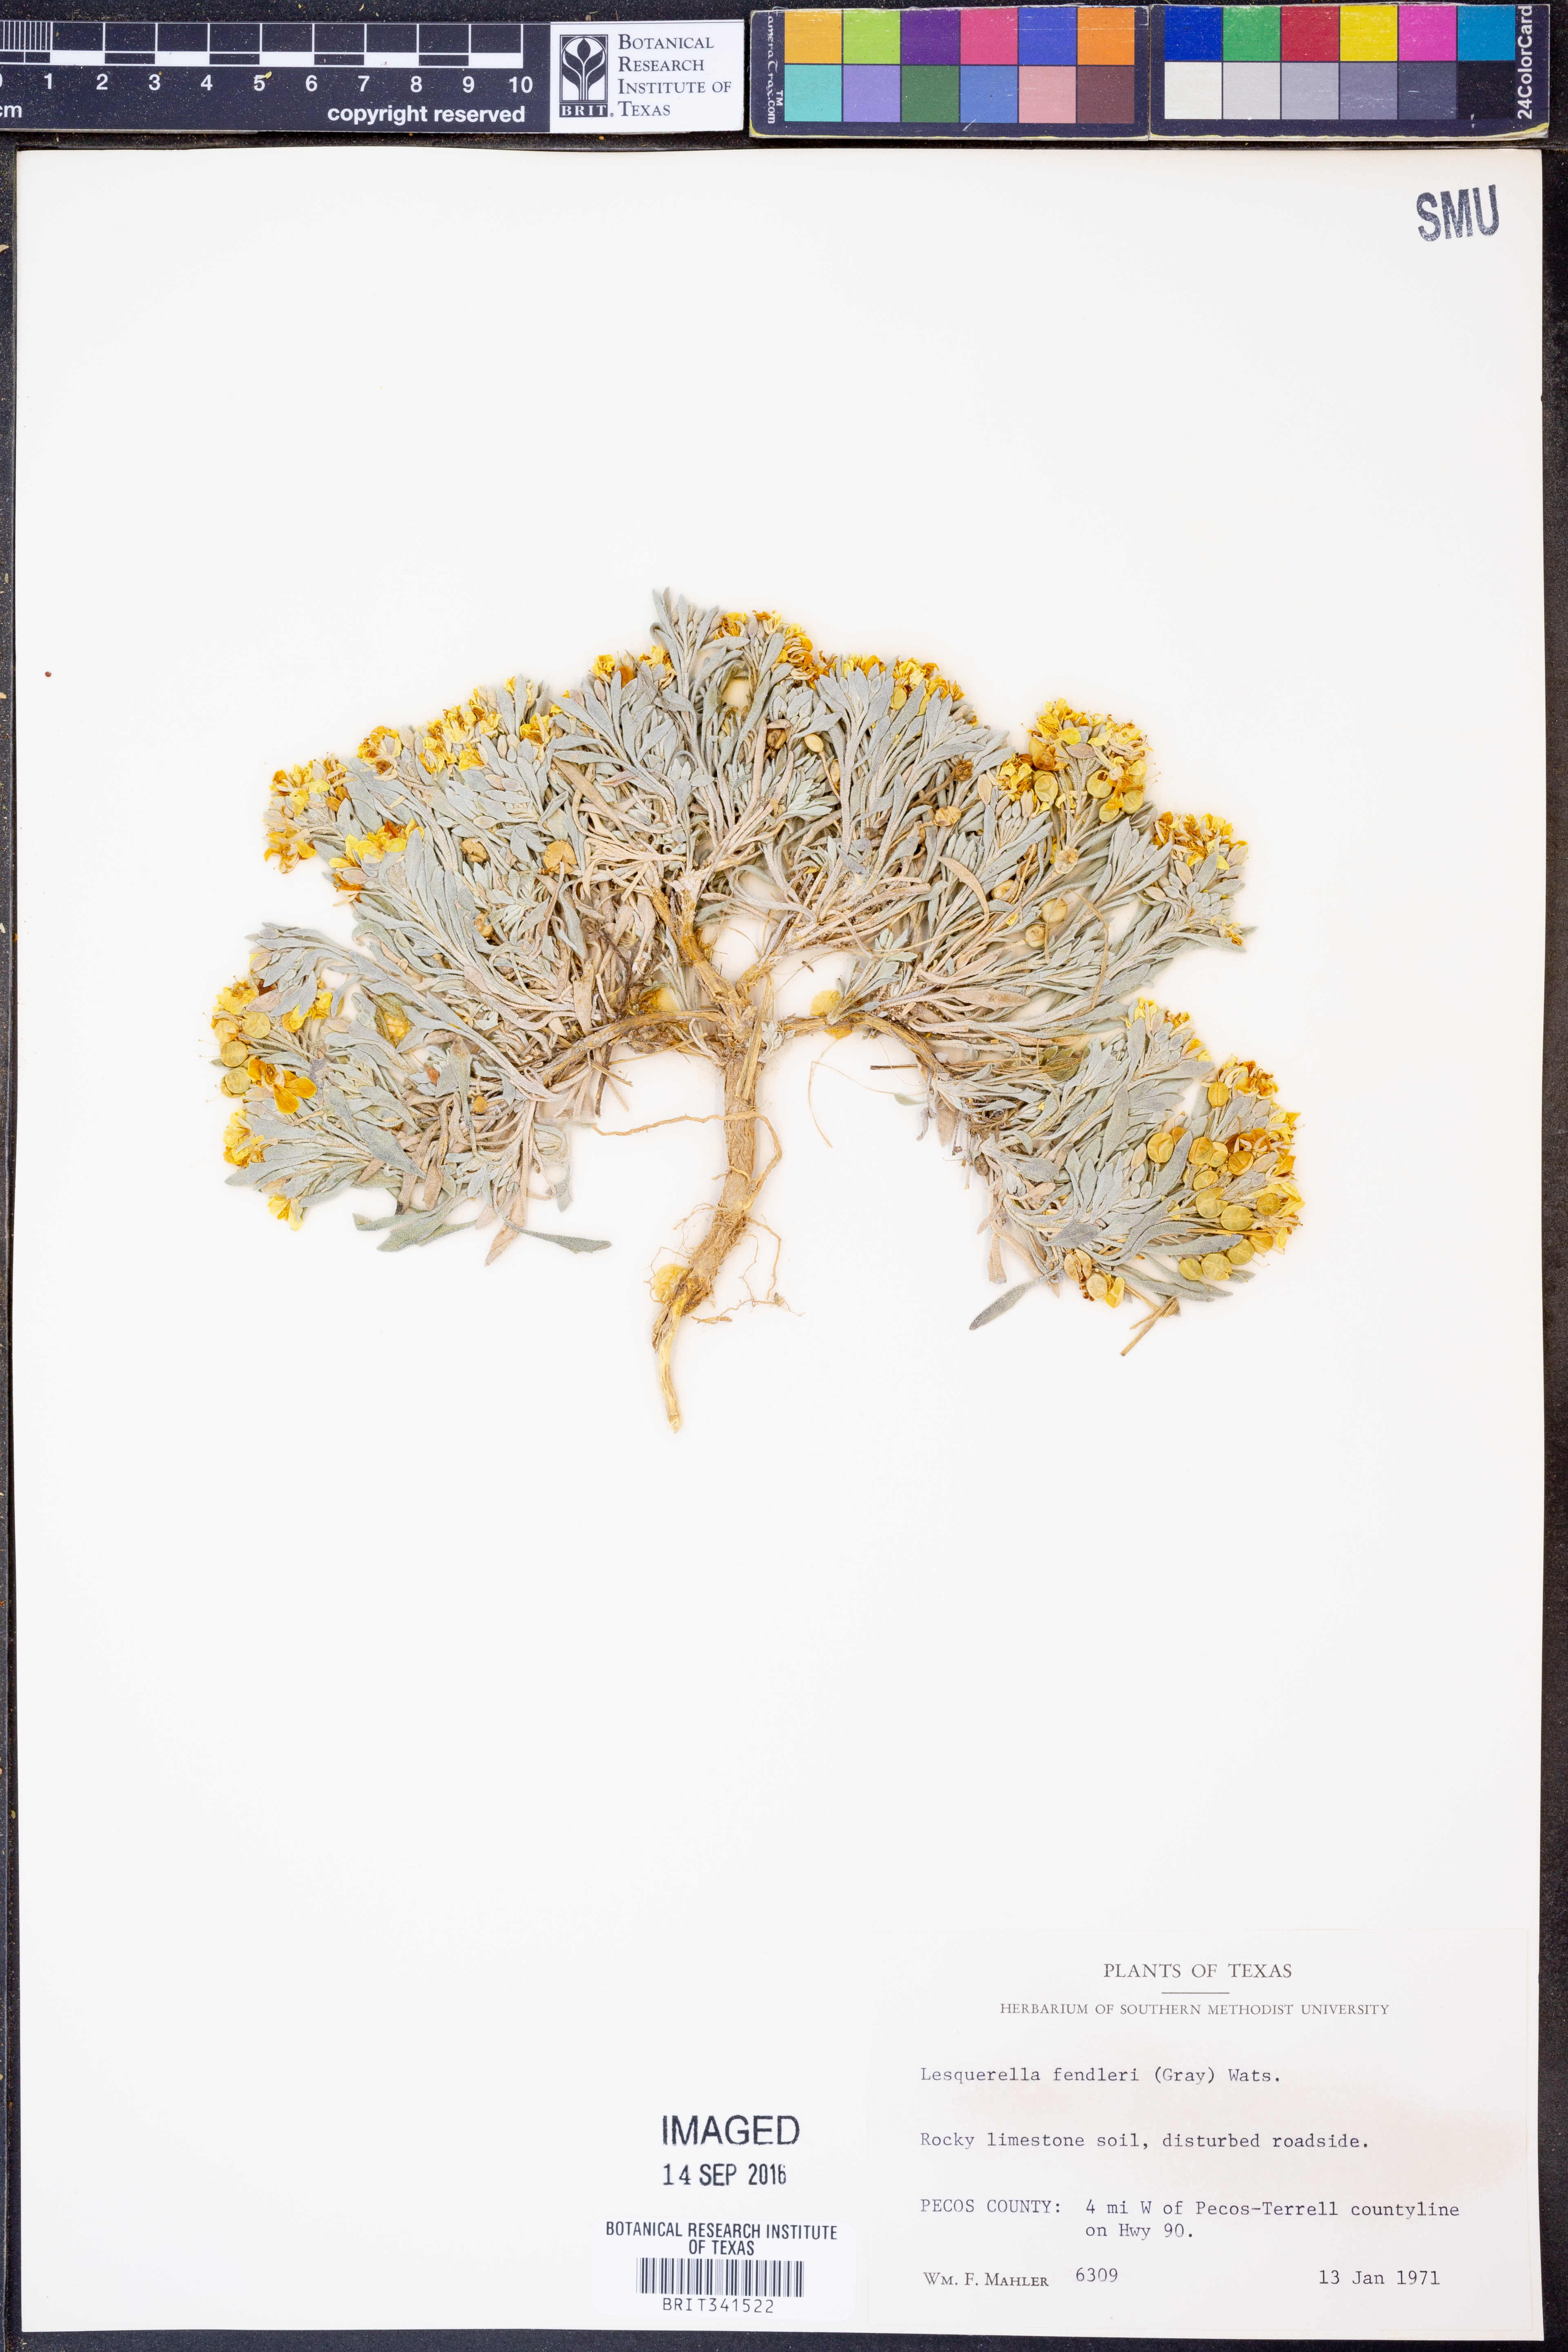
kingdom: Plantae
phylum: Tracheophyta
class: Magnoliopsida
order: Brassicales
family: Brassicaceae
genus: Physaria
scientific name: Physaria fendleri
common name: Fendler's bladderpod
